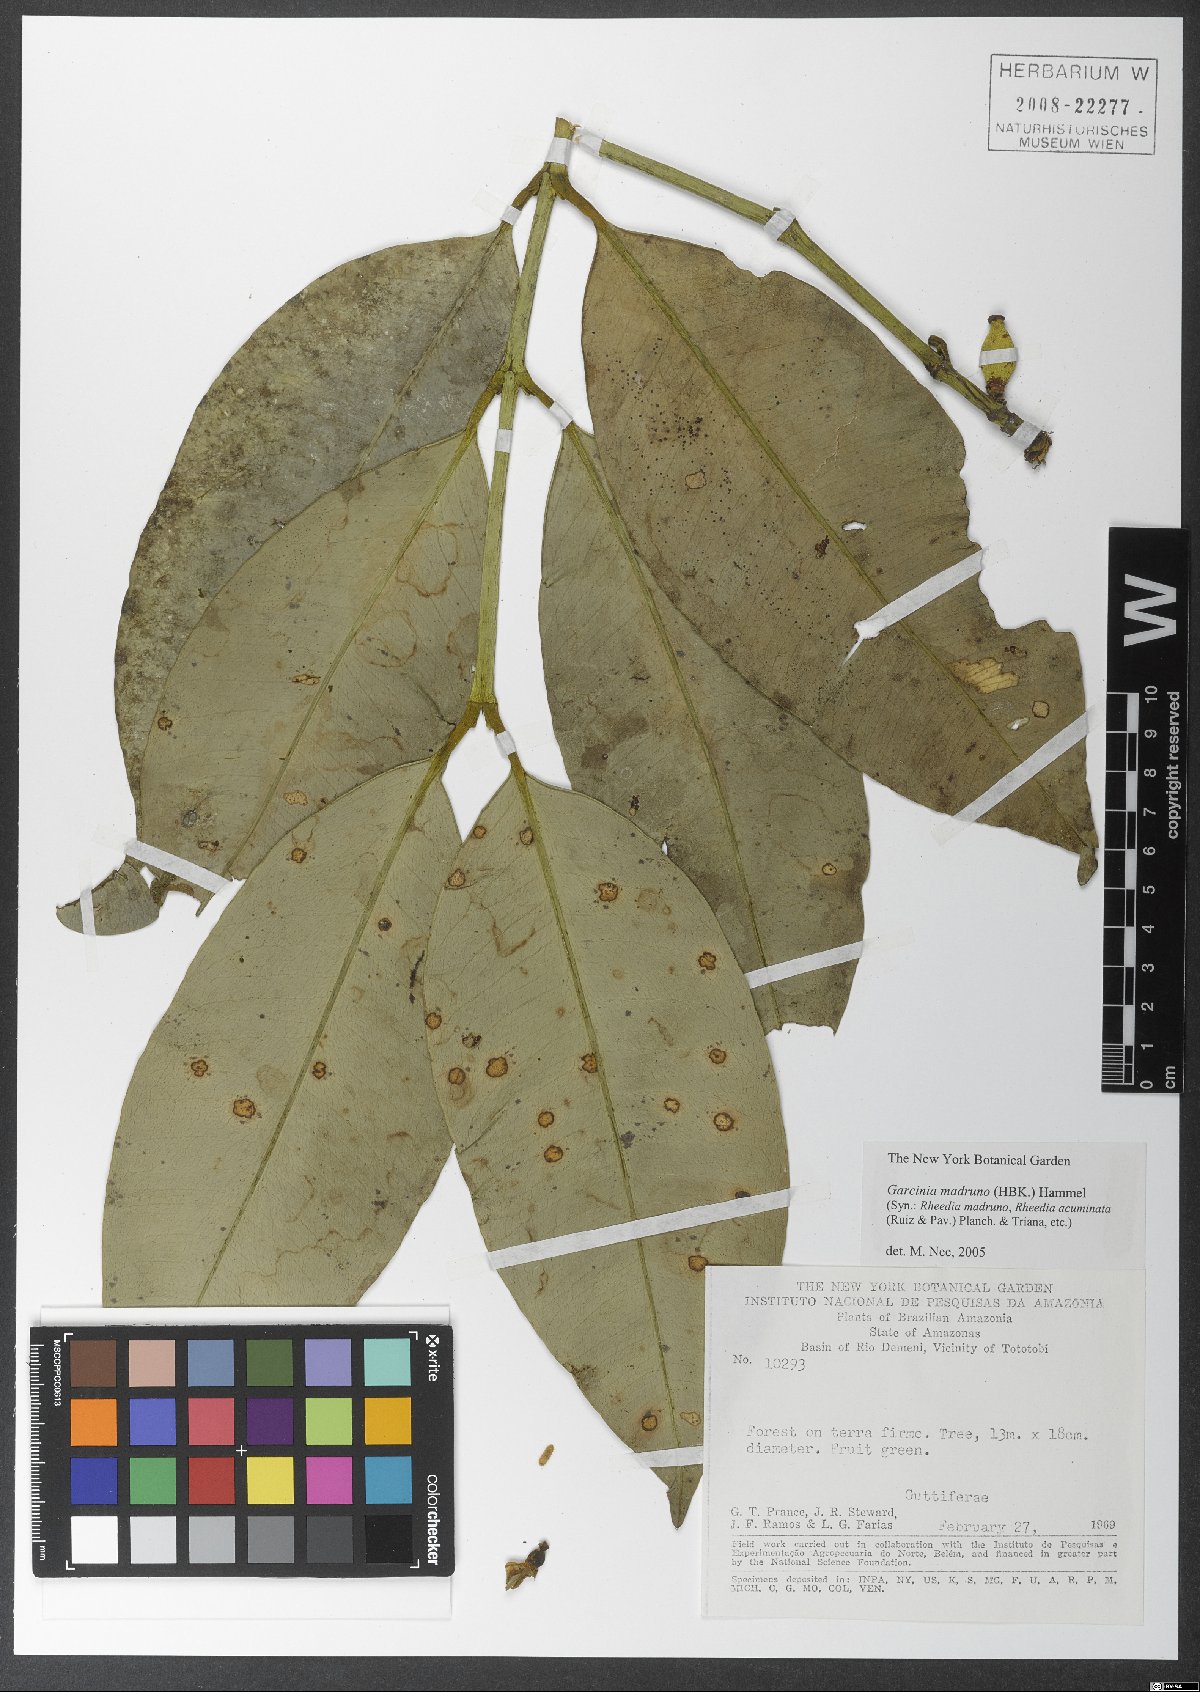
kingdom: Plantae
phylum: Tracheophyta
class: Magnoliopsida
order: Malpighiales
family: Clusiaceae
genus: Garcinia
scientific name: Garcinia madruno
